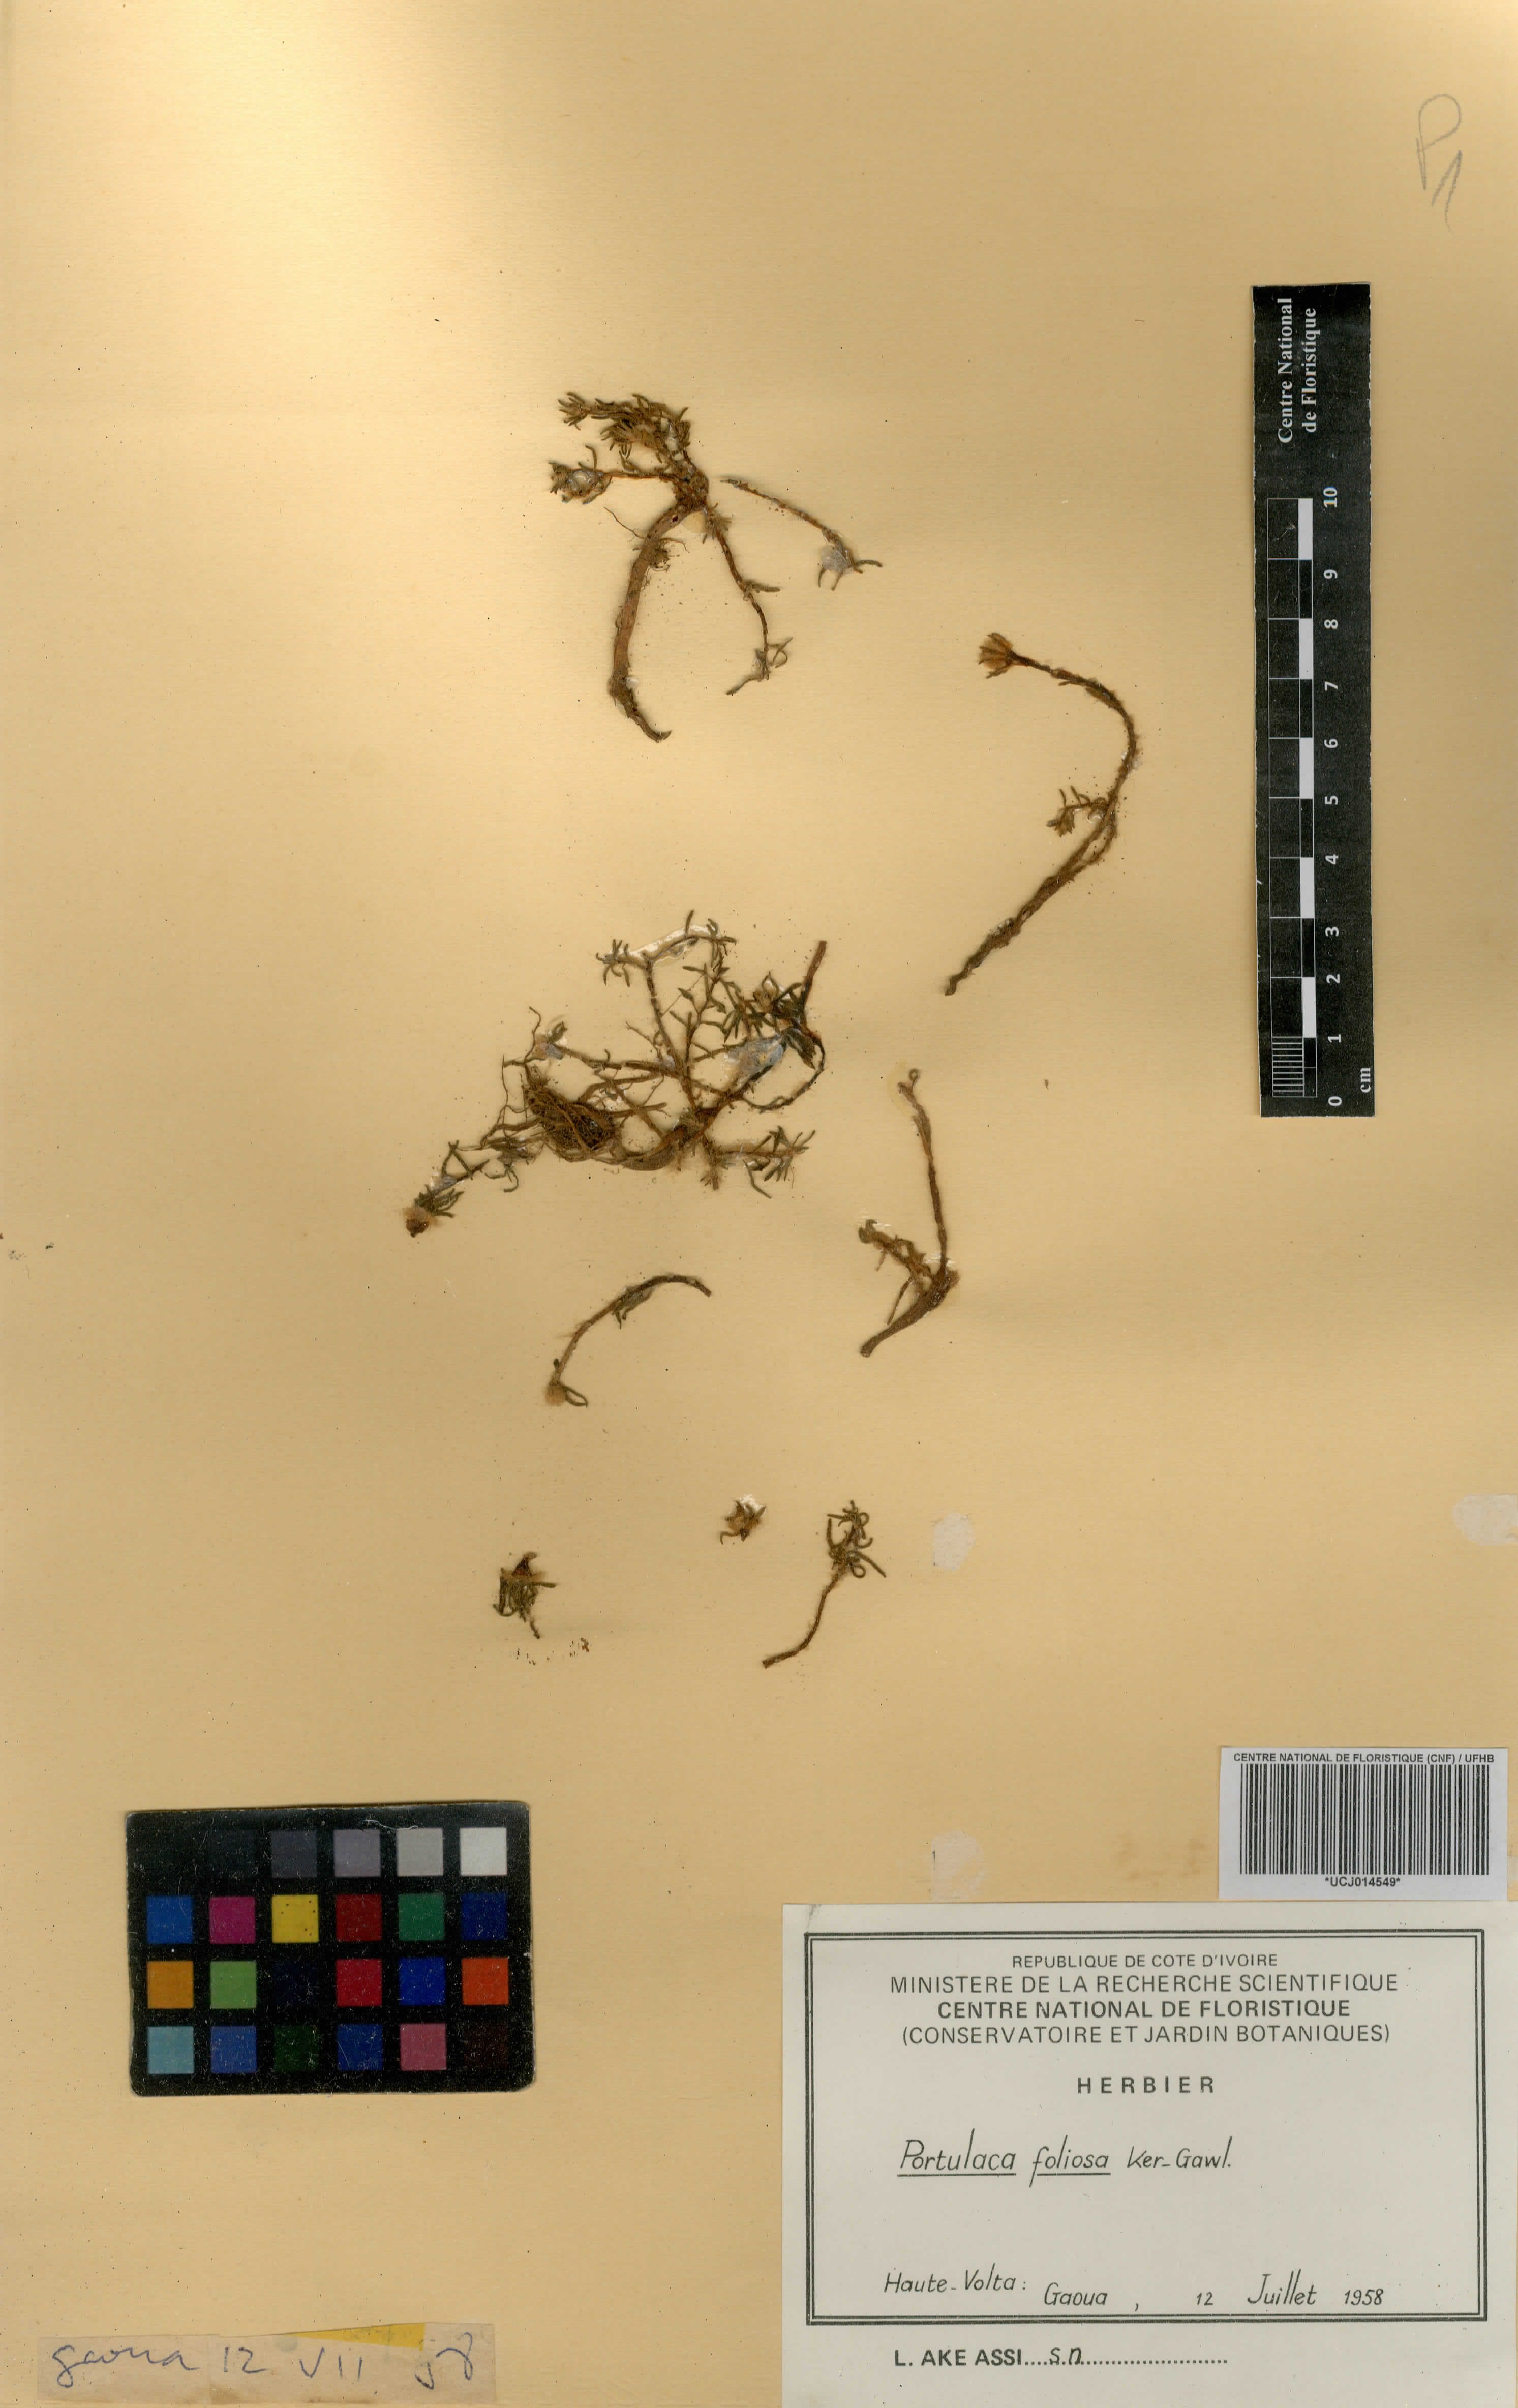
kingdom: Plantae
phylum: Tracheophyta
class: Magnoliopsida
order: Caryophyllales
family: Portulacaceae
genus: Portulaca
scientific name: Portulaca foliosa
